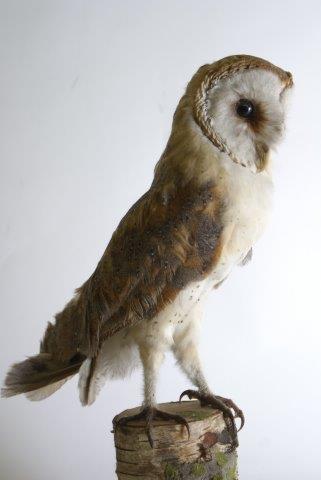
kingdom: Animalia
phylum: Chordata
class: Aves
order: Strigiformes
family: Tytonidae
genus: Tyto
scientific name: Tyto alba
